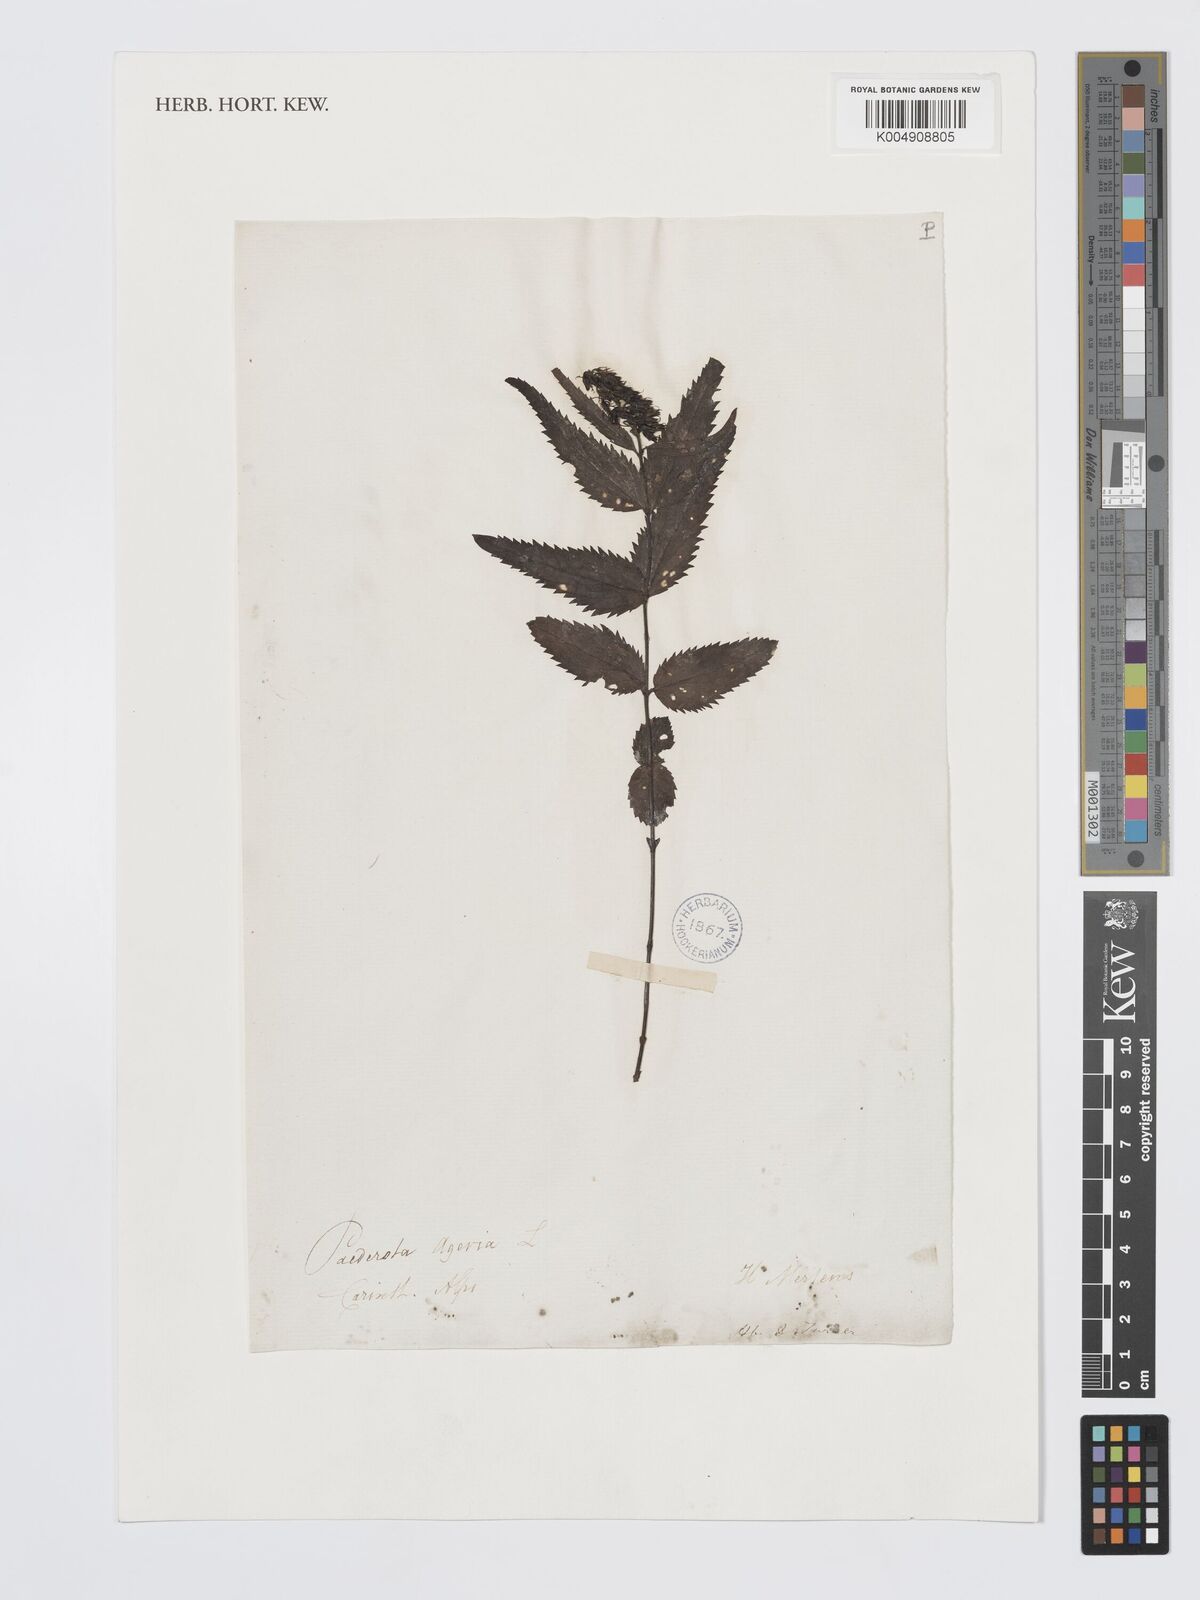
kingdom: Plantae
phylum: Tracheophyta
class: Magnoliopsida
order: Lamiales
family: Plantaginaceae
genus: Paederota
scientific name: Paederota lutea
